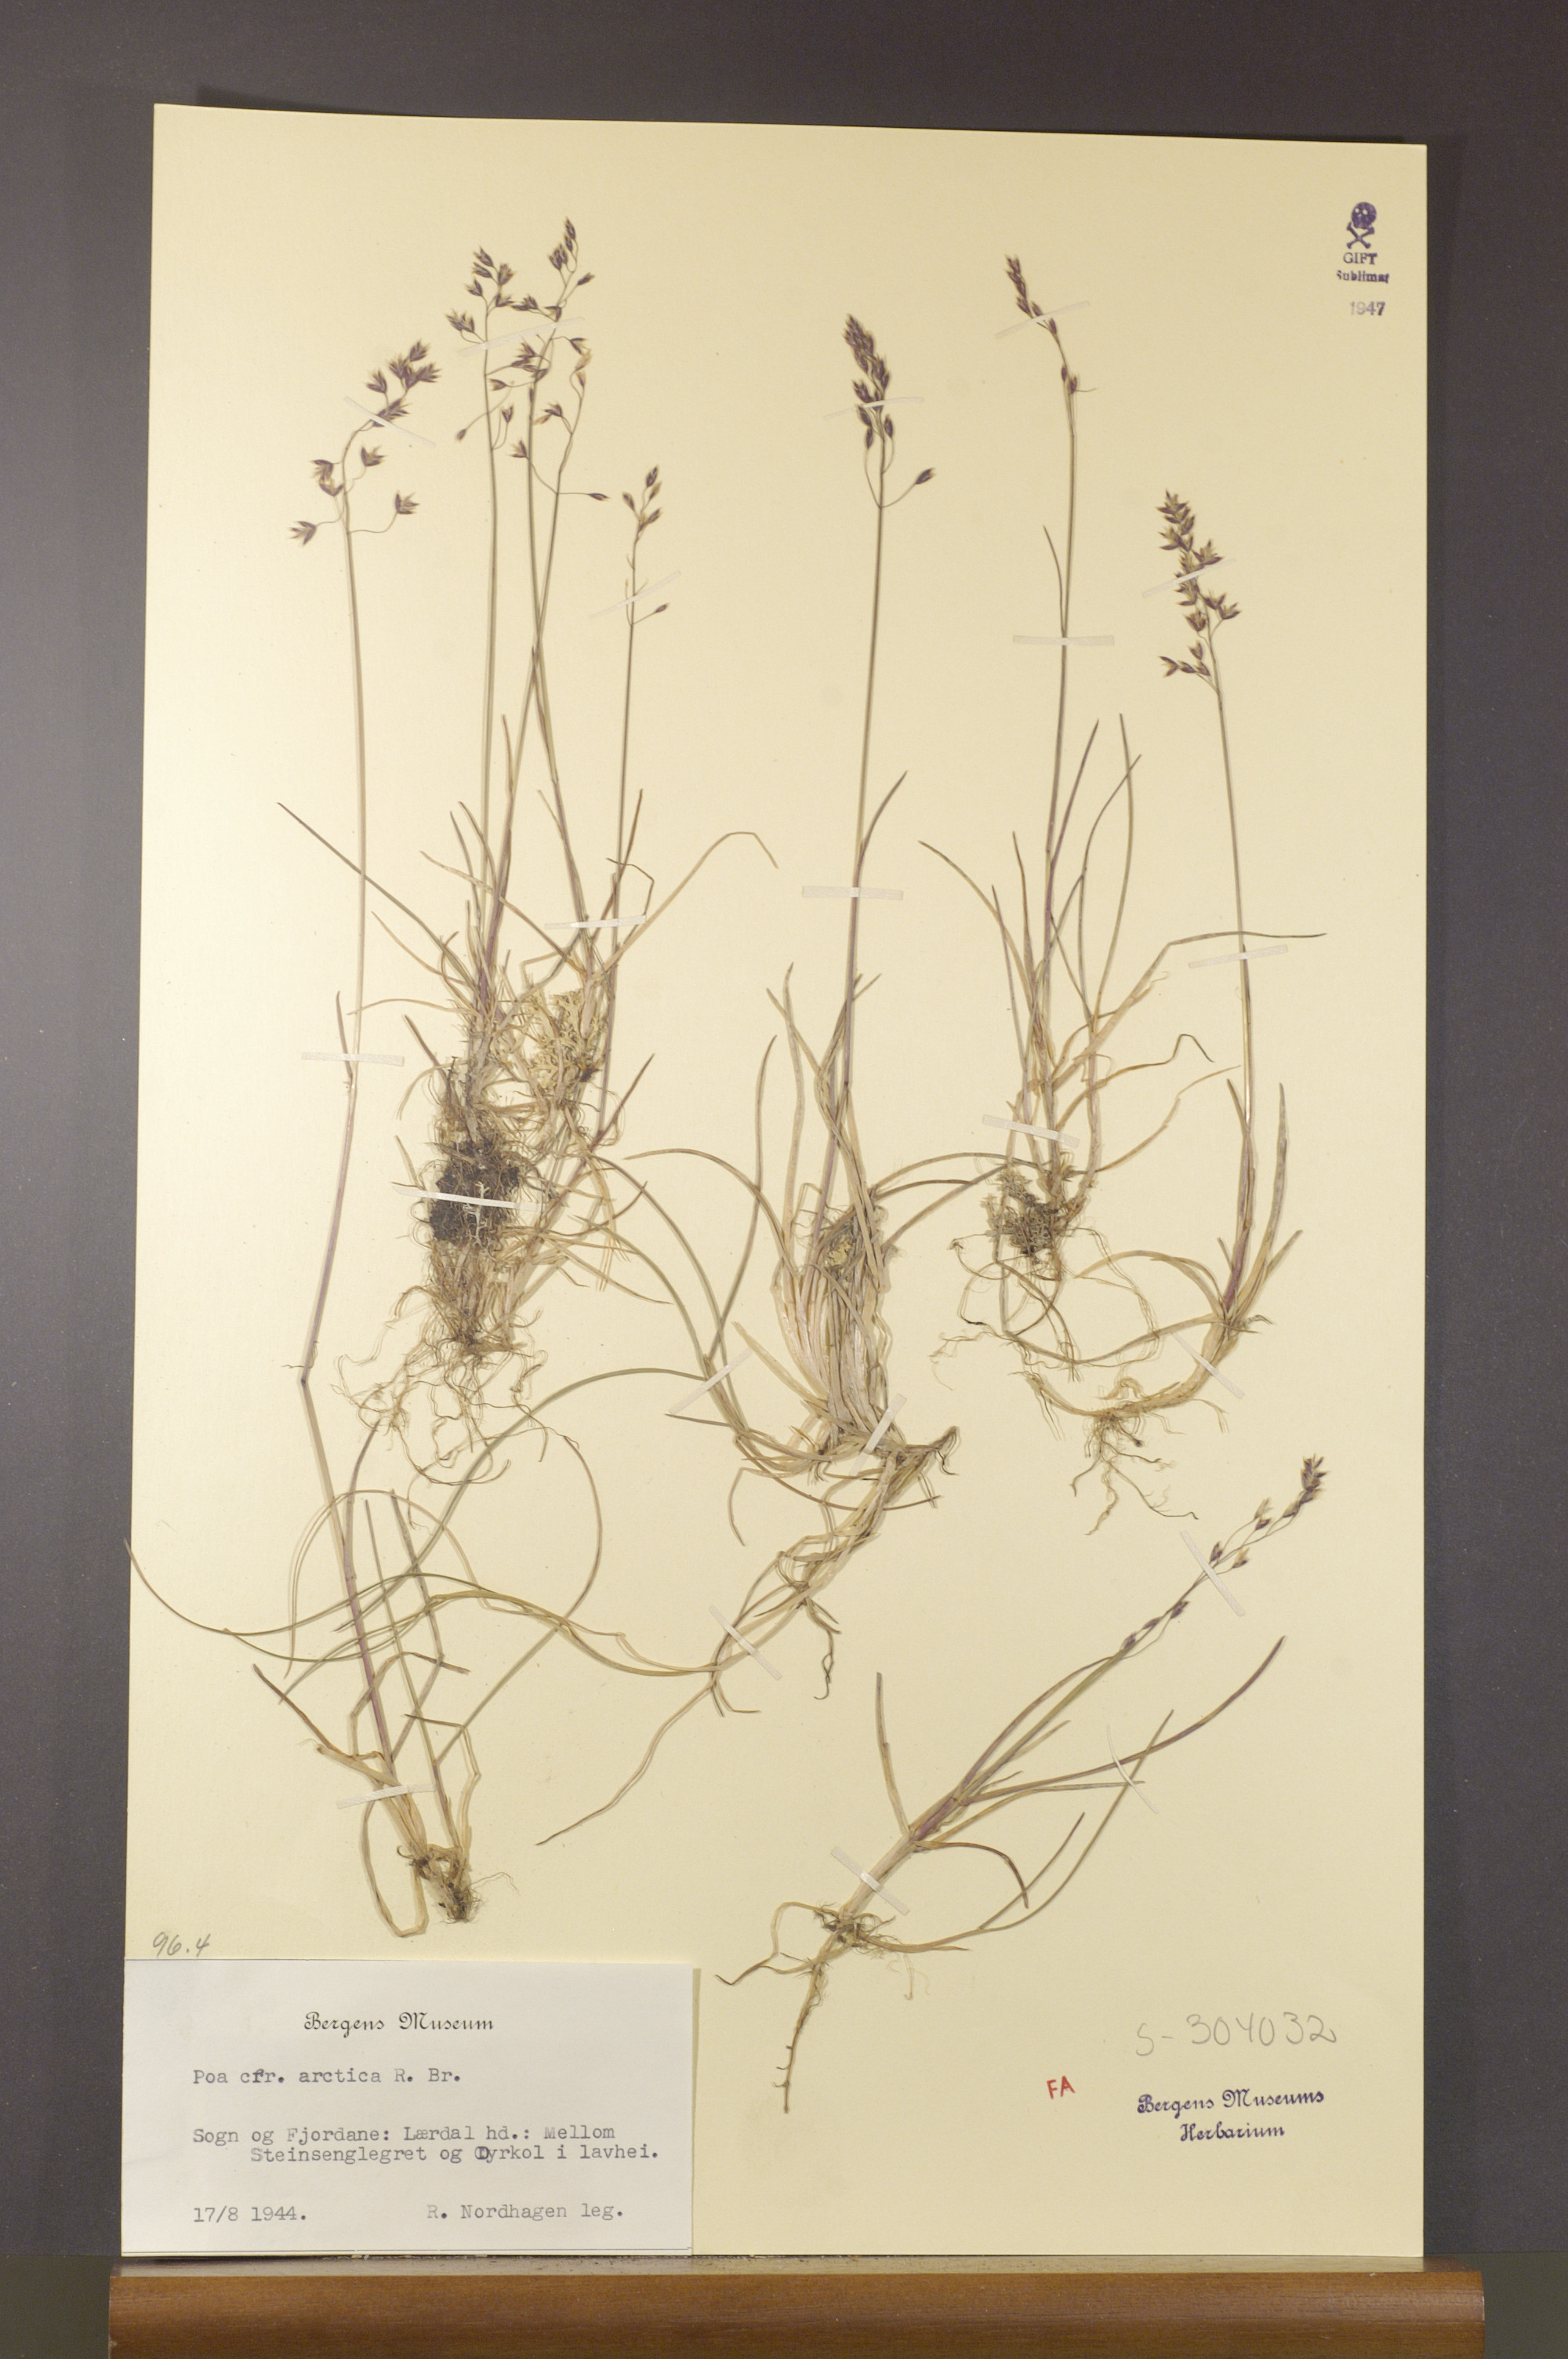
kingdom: Plantae
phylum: Tracheophyta
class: Liliopsida
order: Poales
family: Poaceae
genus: Poa
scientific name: Poa arctica
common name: Arctic bluegrass
